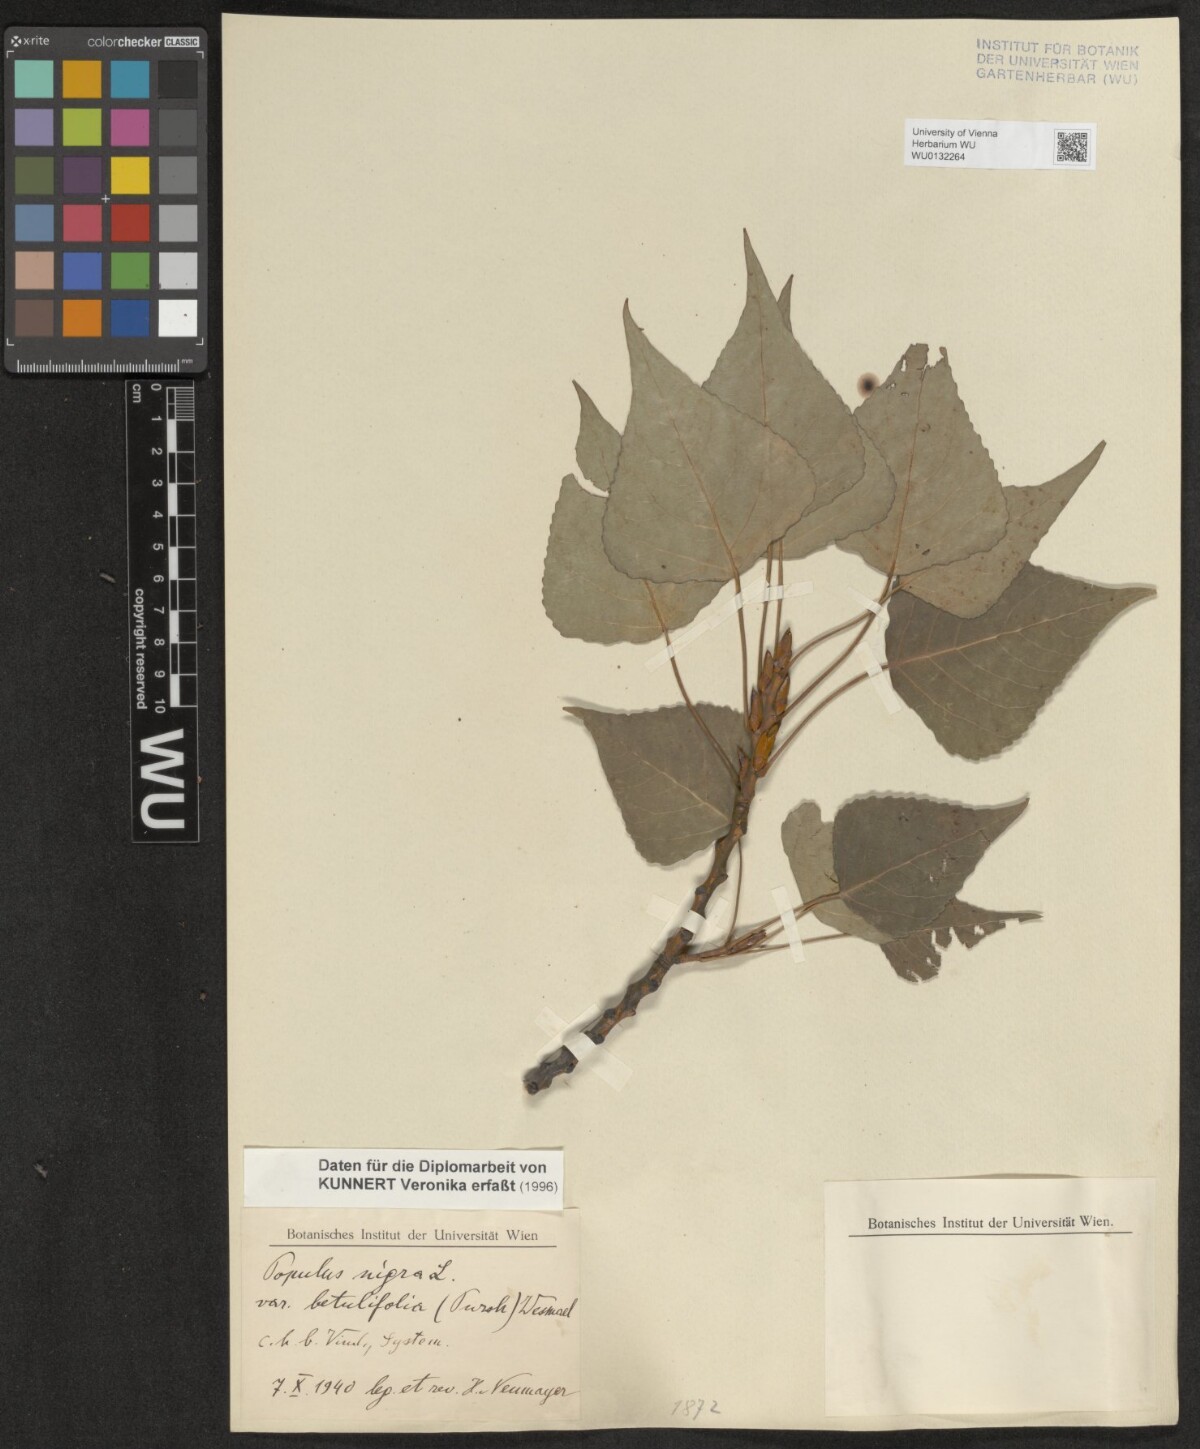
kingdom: Plantae
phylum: Tracheophyta
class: Magnoliopsida
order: Malpighiales
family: Salicaceae
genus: Populus
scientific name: Populus nigra
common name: Black poplar
